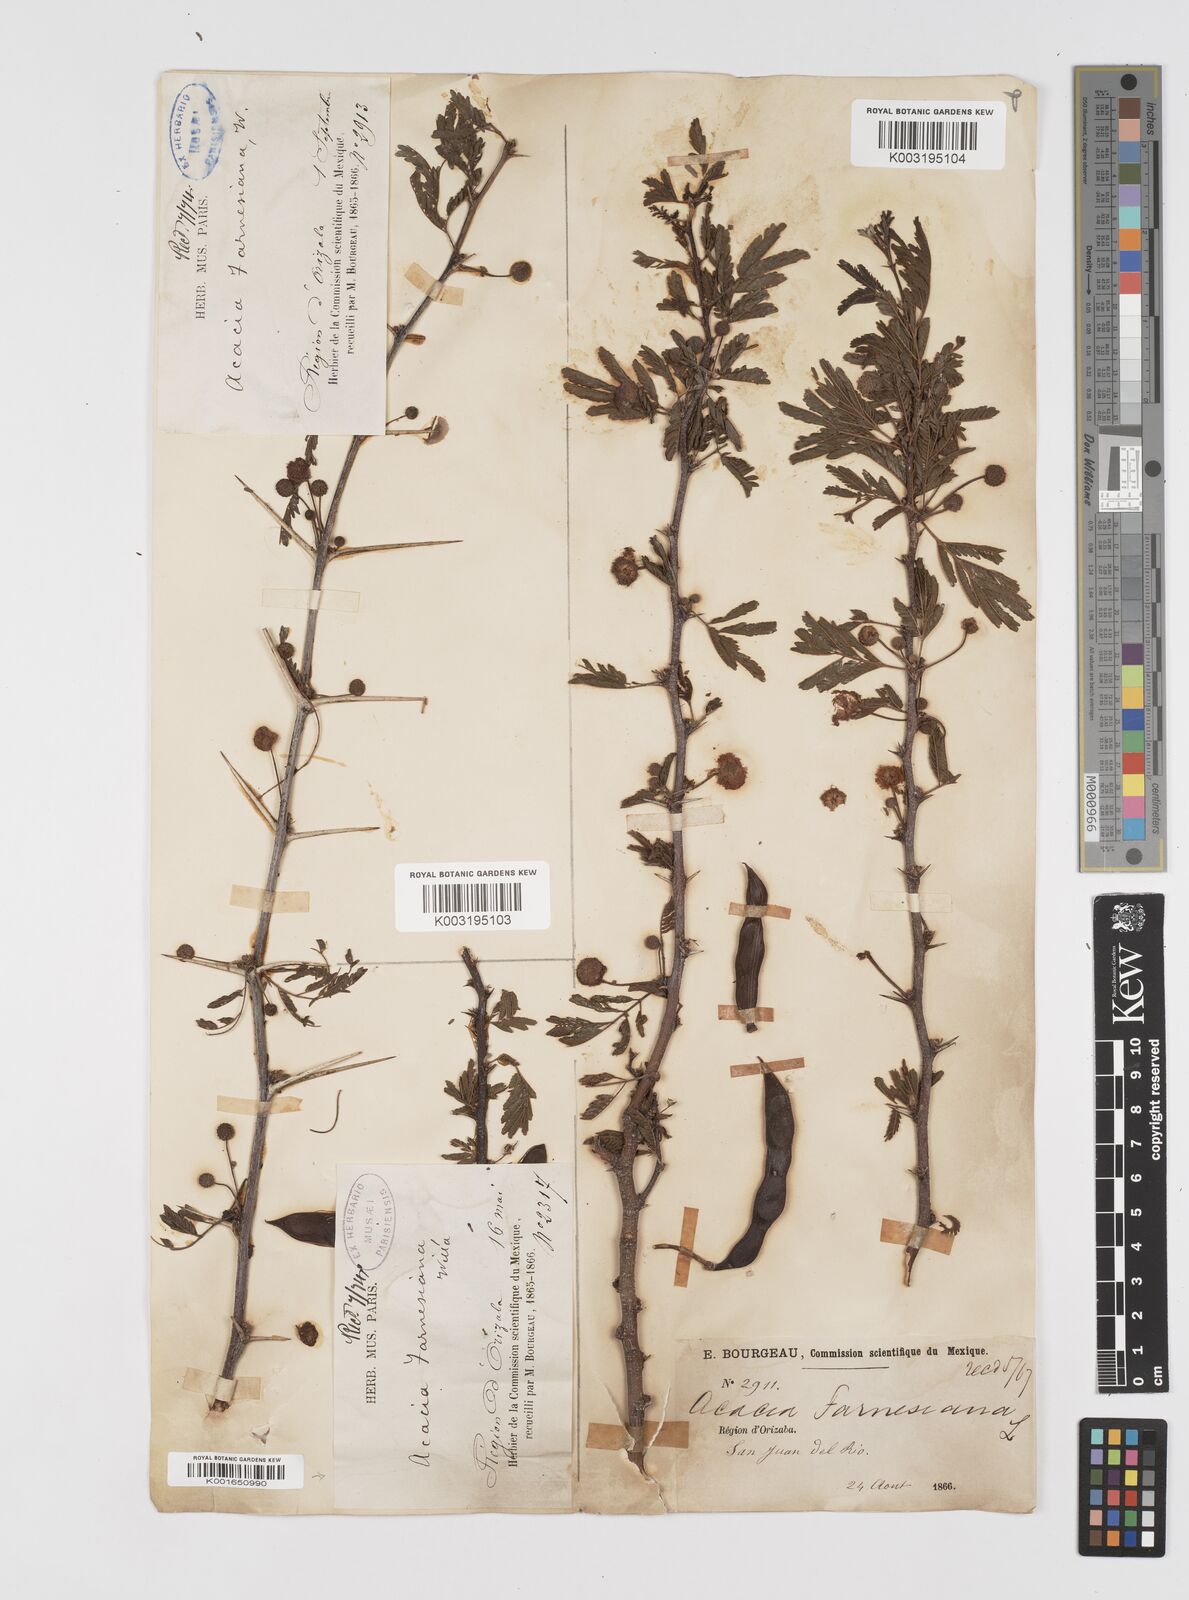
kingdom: Plantae
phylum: Tracheophyta
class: Magnoliopsida
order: Fabales
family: Fabaceae
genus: Vachellia
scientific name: Vachellia farnesiana
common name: Sweet acacia
